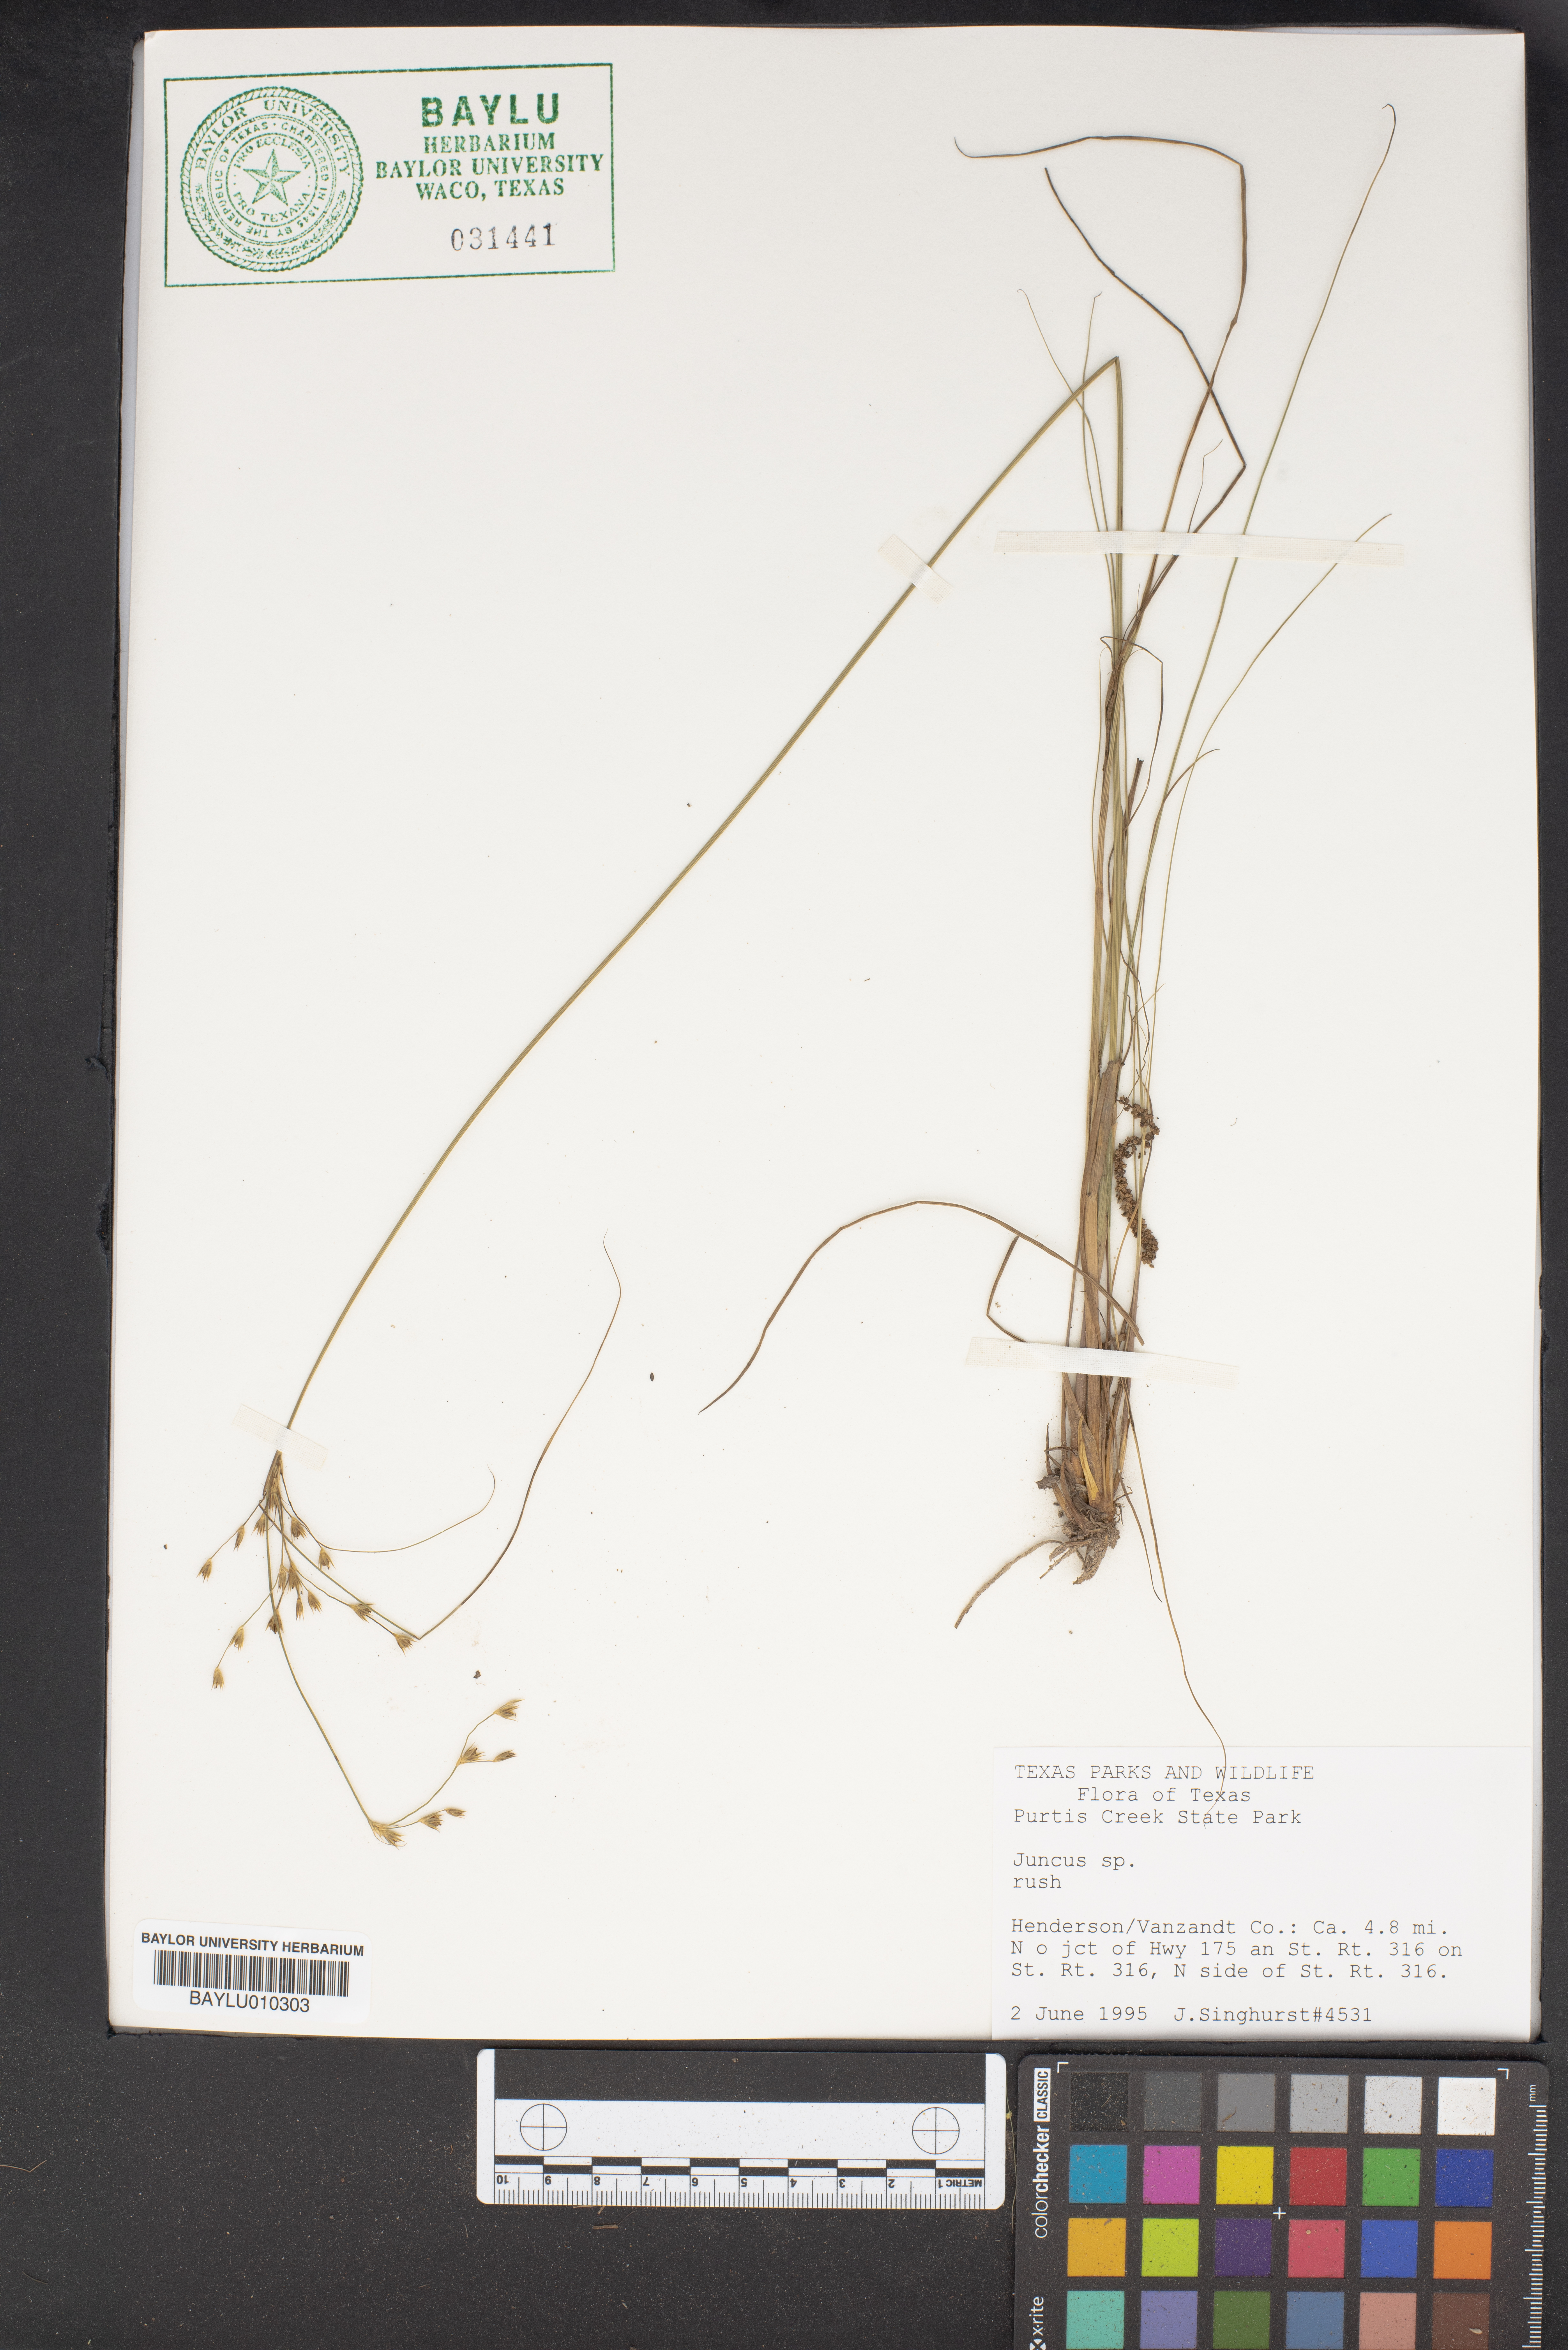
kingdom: Plantae
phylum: Tracheophyta
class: Liliopsida
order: Poales
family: Juncaceae
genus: Juncus
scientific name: Juncus
